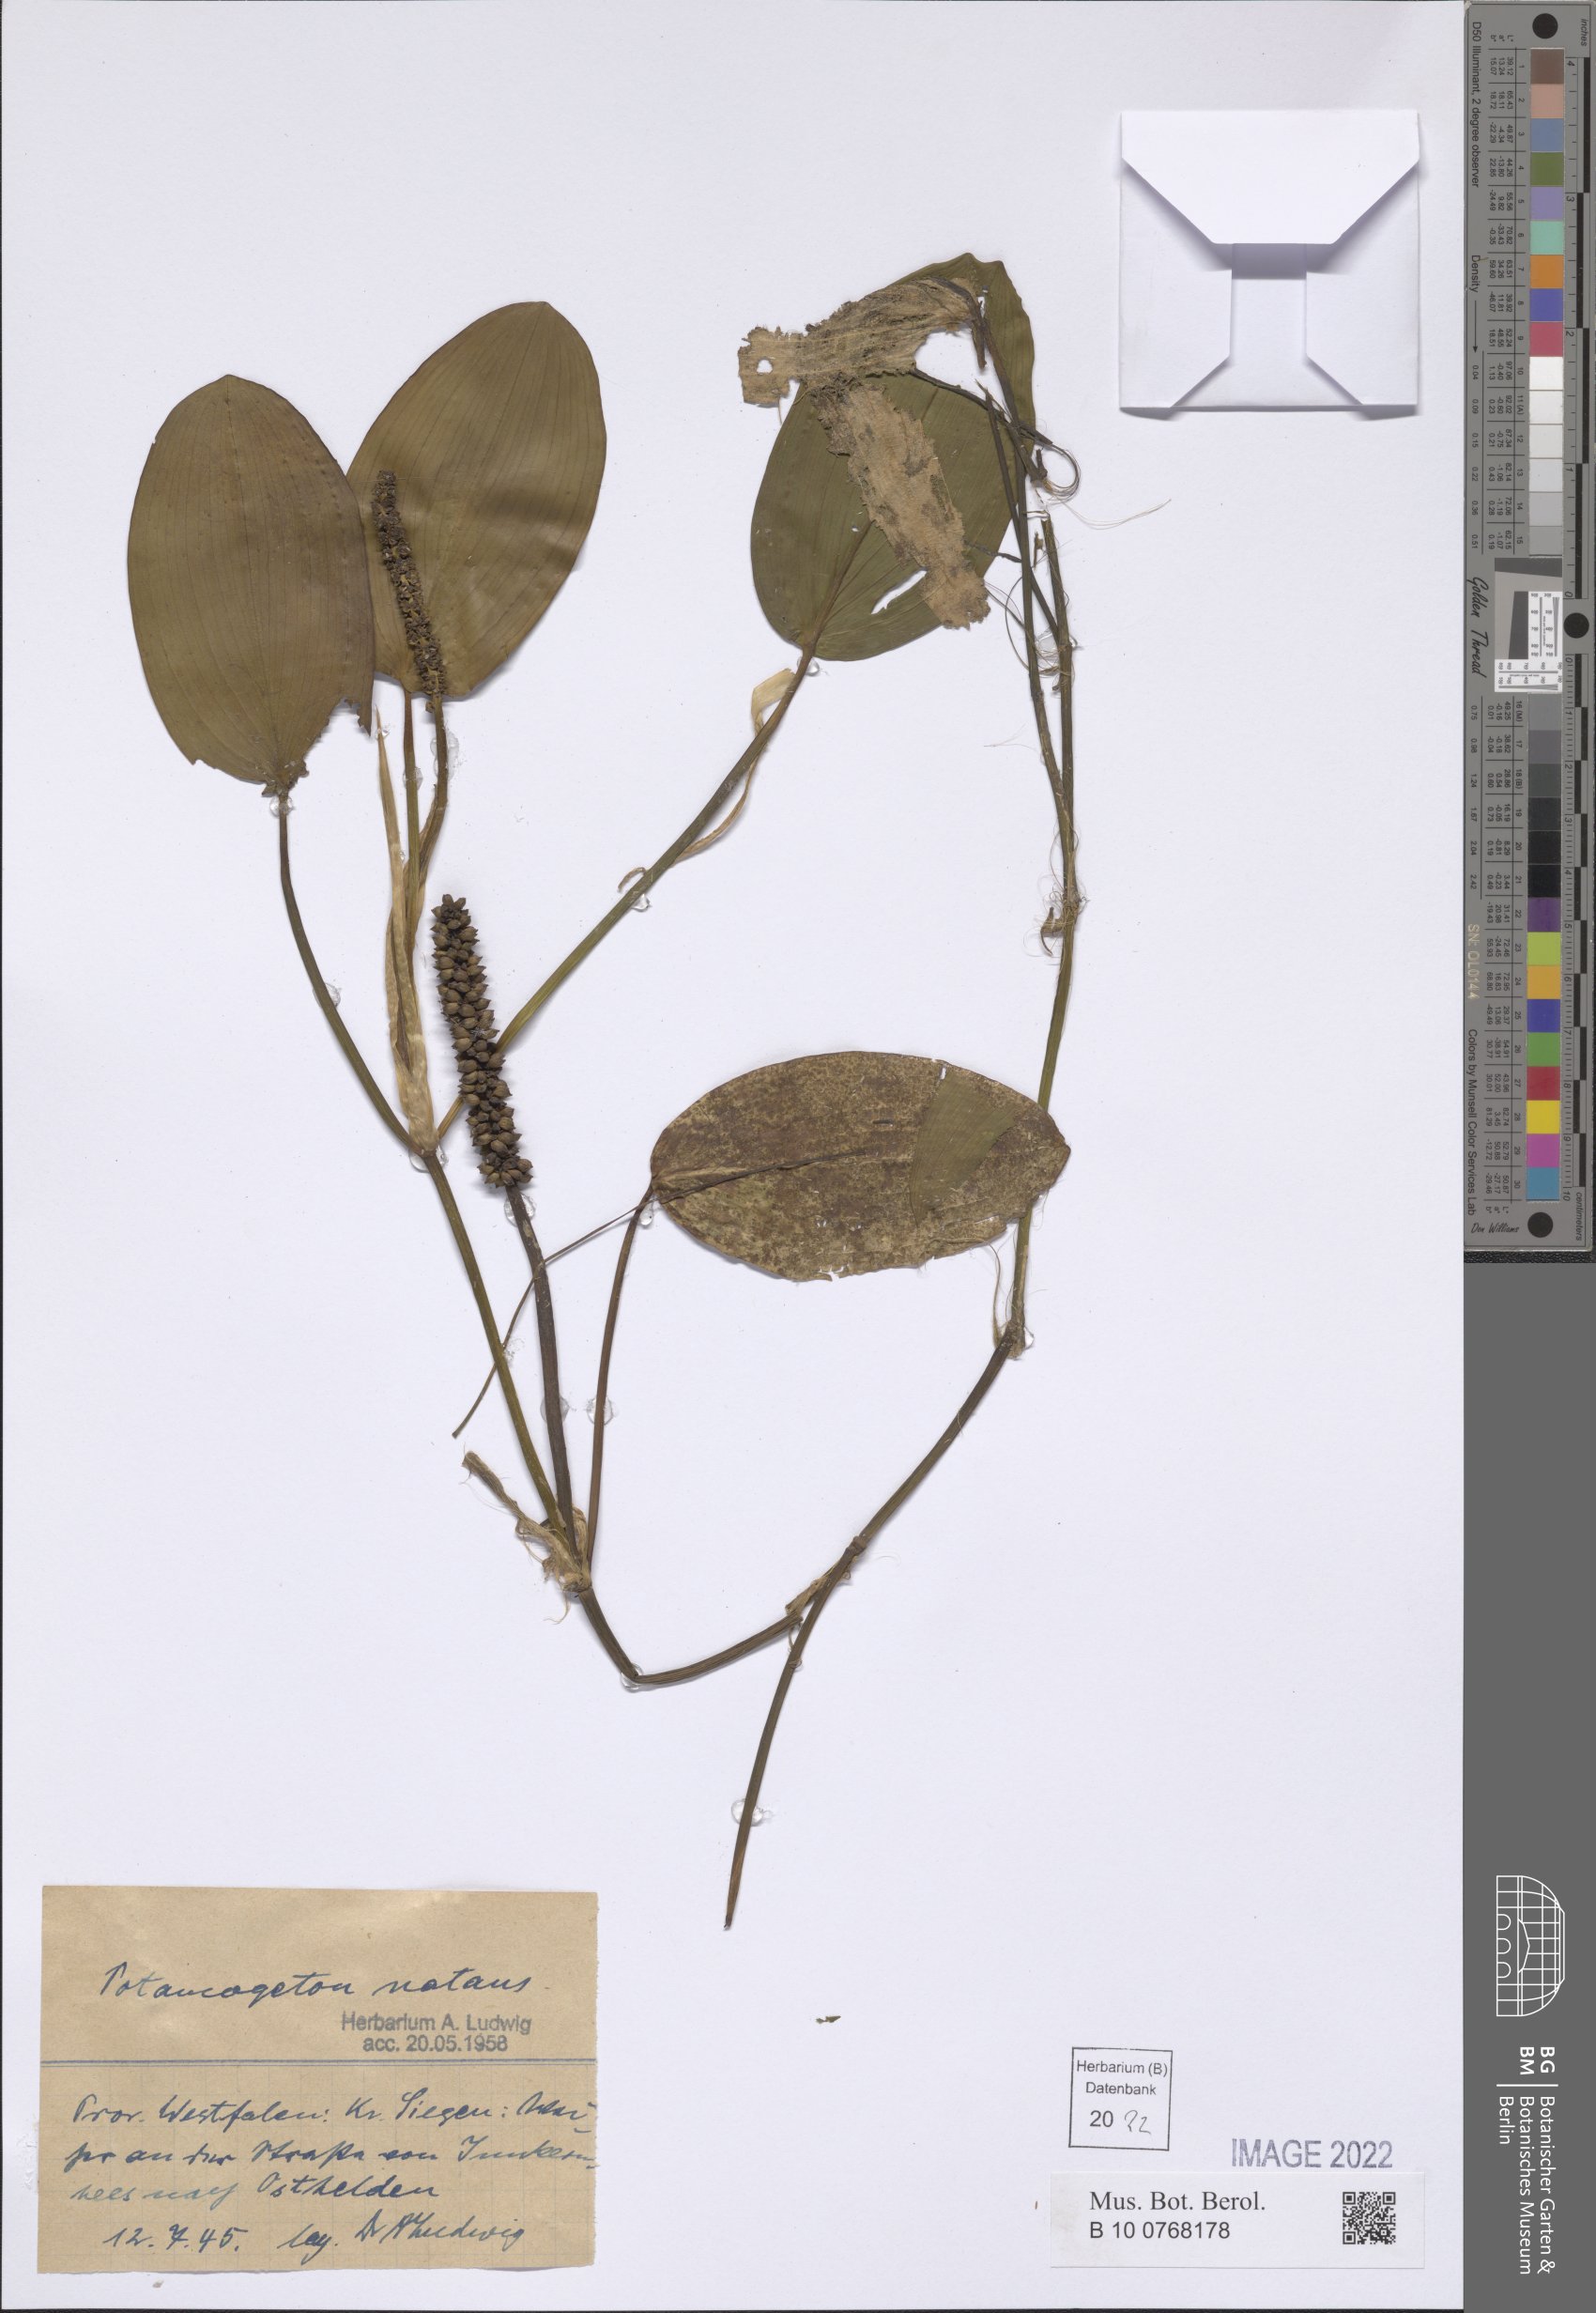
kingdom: Plantae
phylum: Tracheophyta
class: Liliopsida
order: Alismatales
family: Potamogetonaceae
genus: Potamogeton
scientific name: Potamogeton natans
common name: Broad-leaved pondweed
